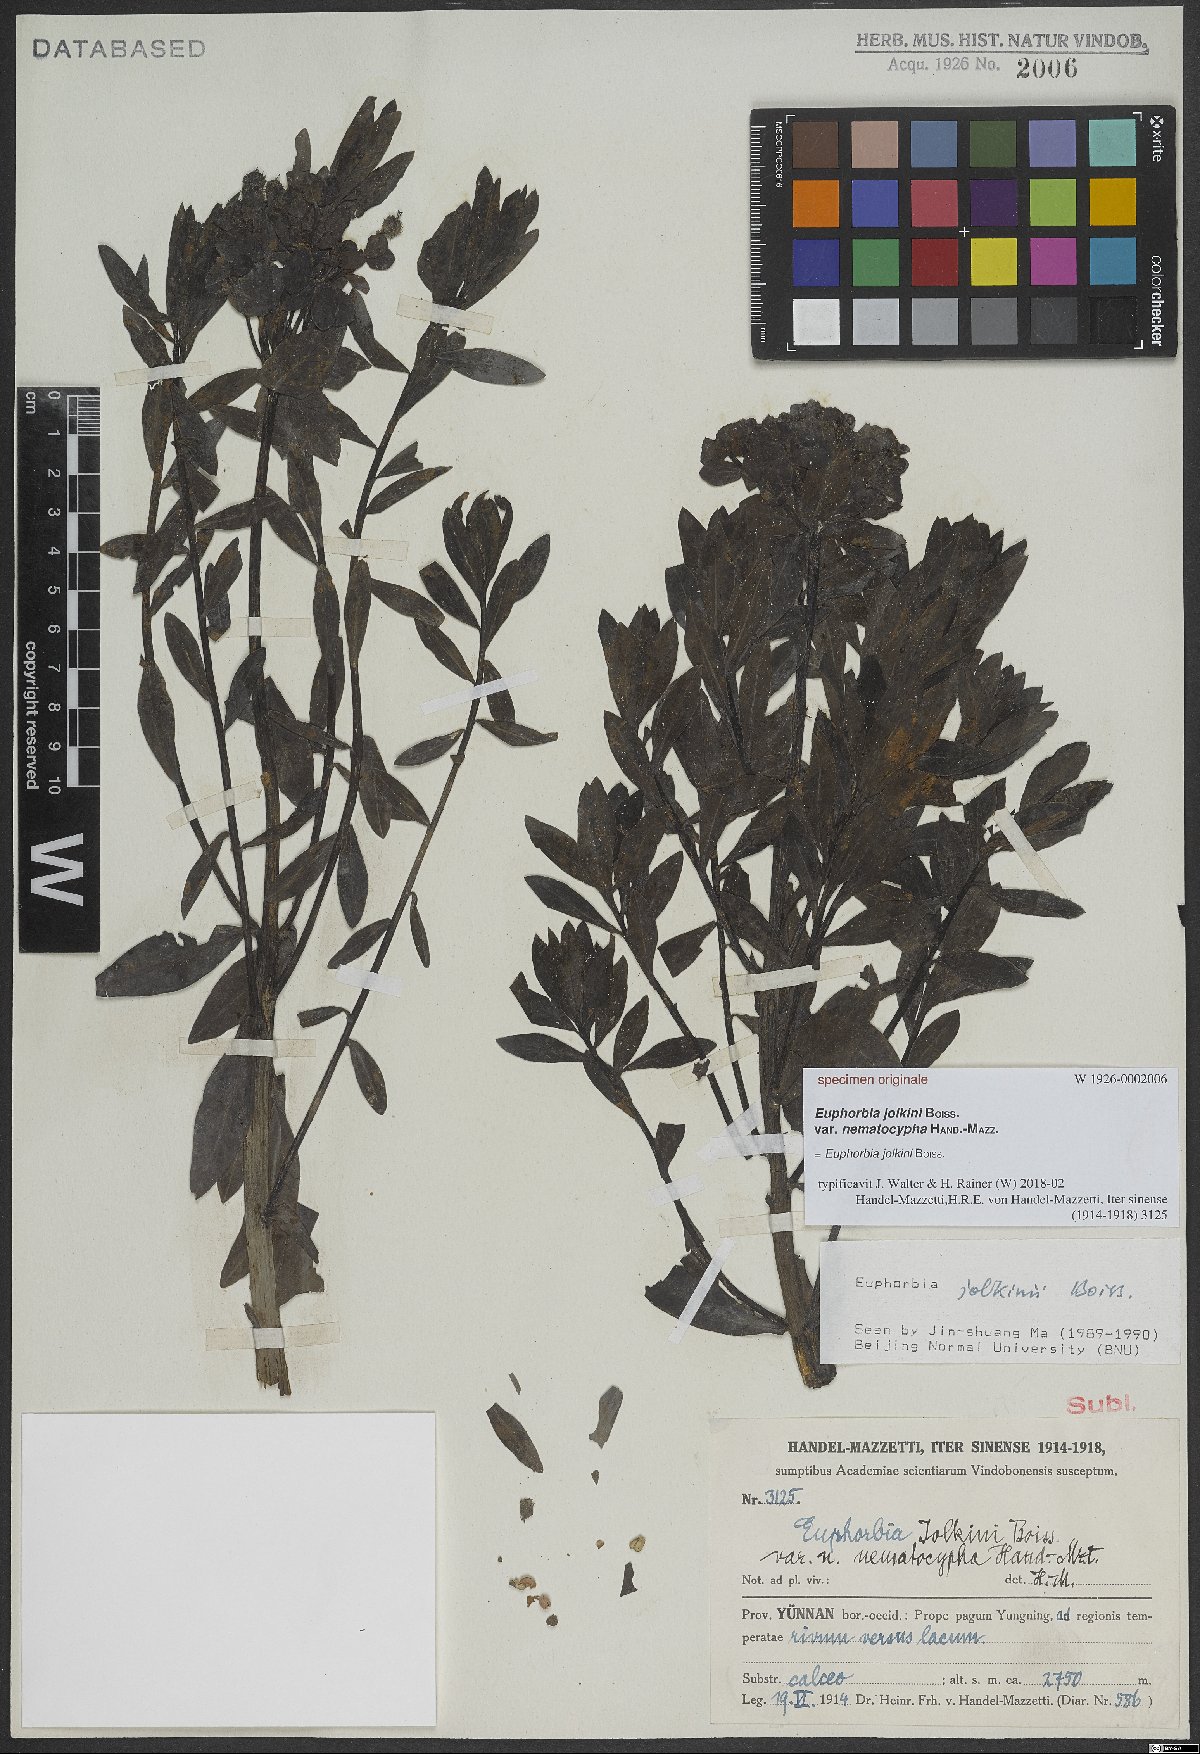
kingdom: Plantae
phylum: Tracheophyta
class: Magnoliopsida
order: Malpighiales
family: Euphorbiaceae
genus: Euphorbia
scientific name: Euphorbia jolkinii
